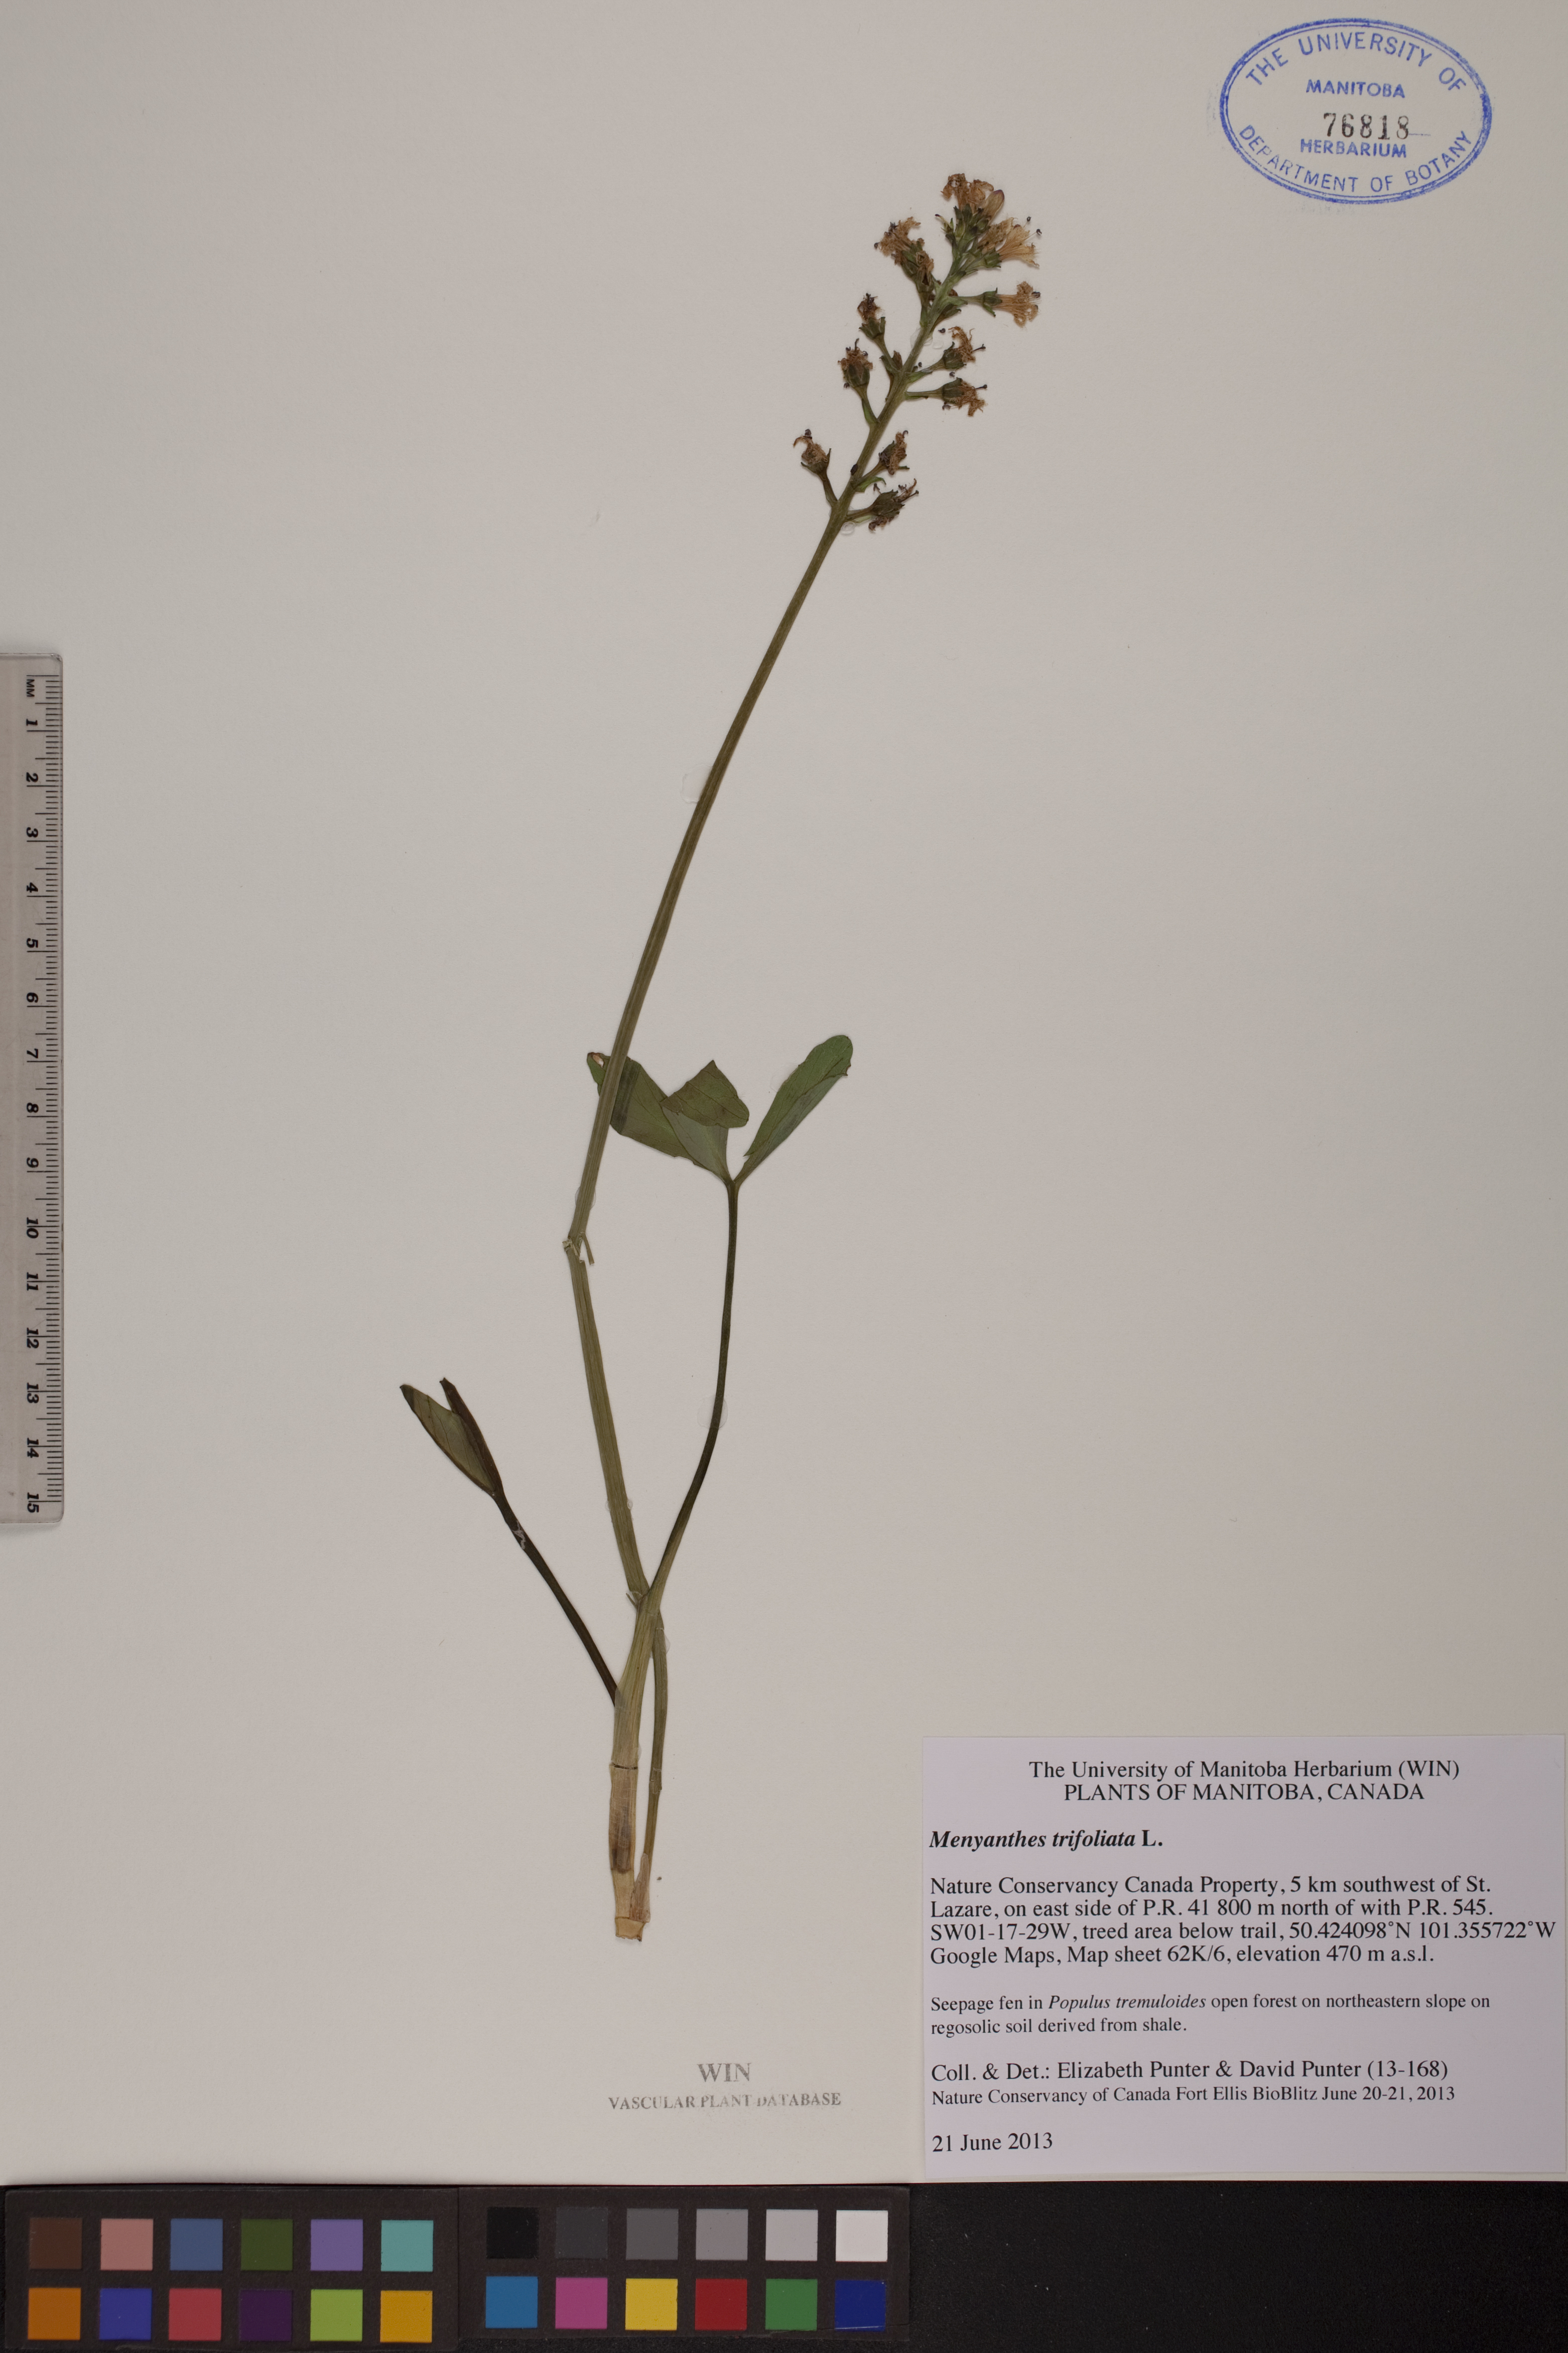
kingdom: Plantae
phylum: Tracheophyta
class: Magnoliopsida
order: Asterales
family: Menyanthaceae
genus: Menyanthes
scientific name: Menyanthes trifoliata
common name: Bogbean
